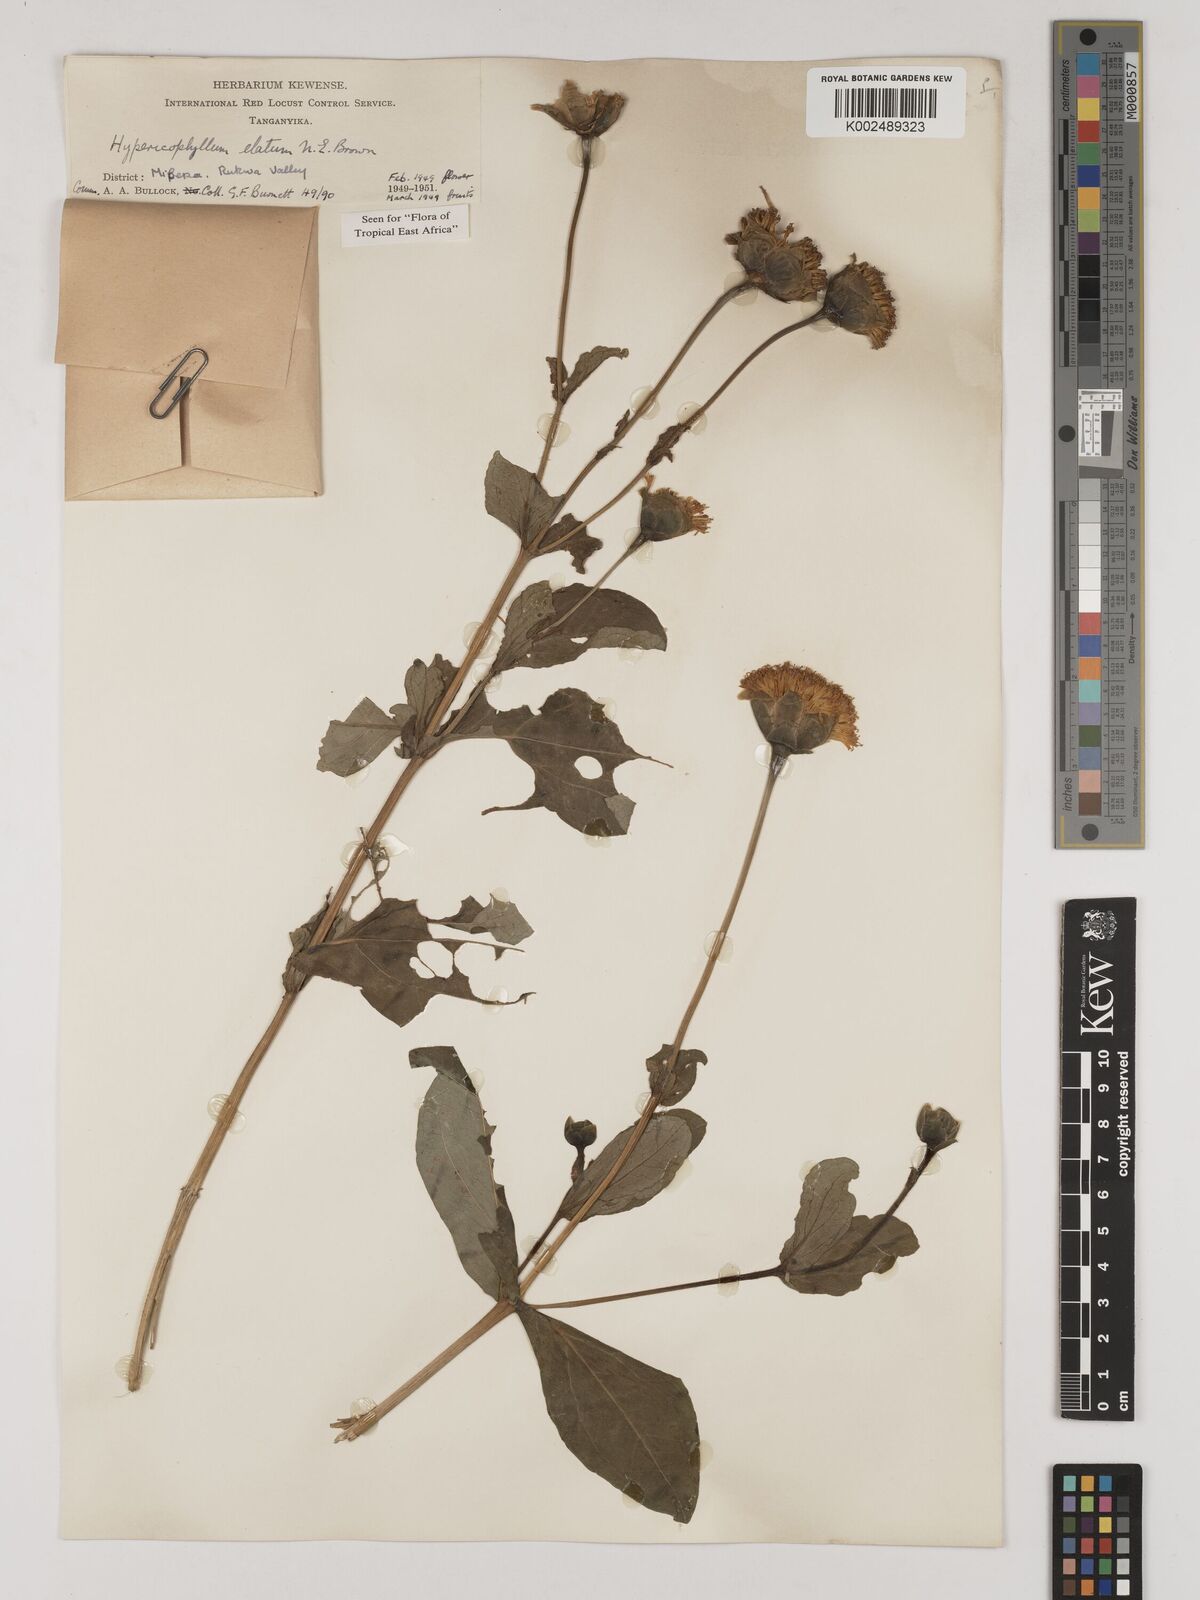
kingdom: Plantae
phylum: Tracheophyta
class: Magnoliopsida
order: Asterales
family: Asteraceae
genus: Hypericophyllum
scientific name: Hypericophyllum elatum
